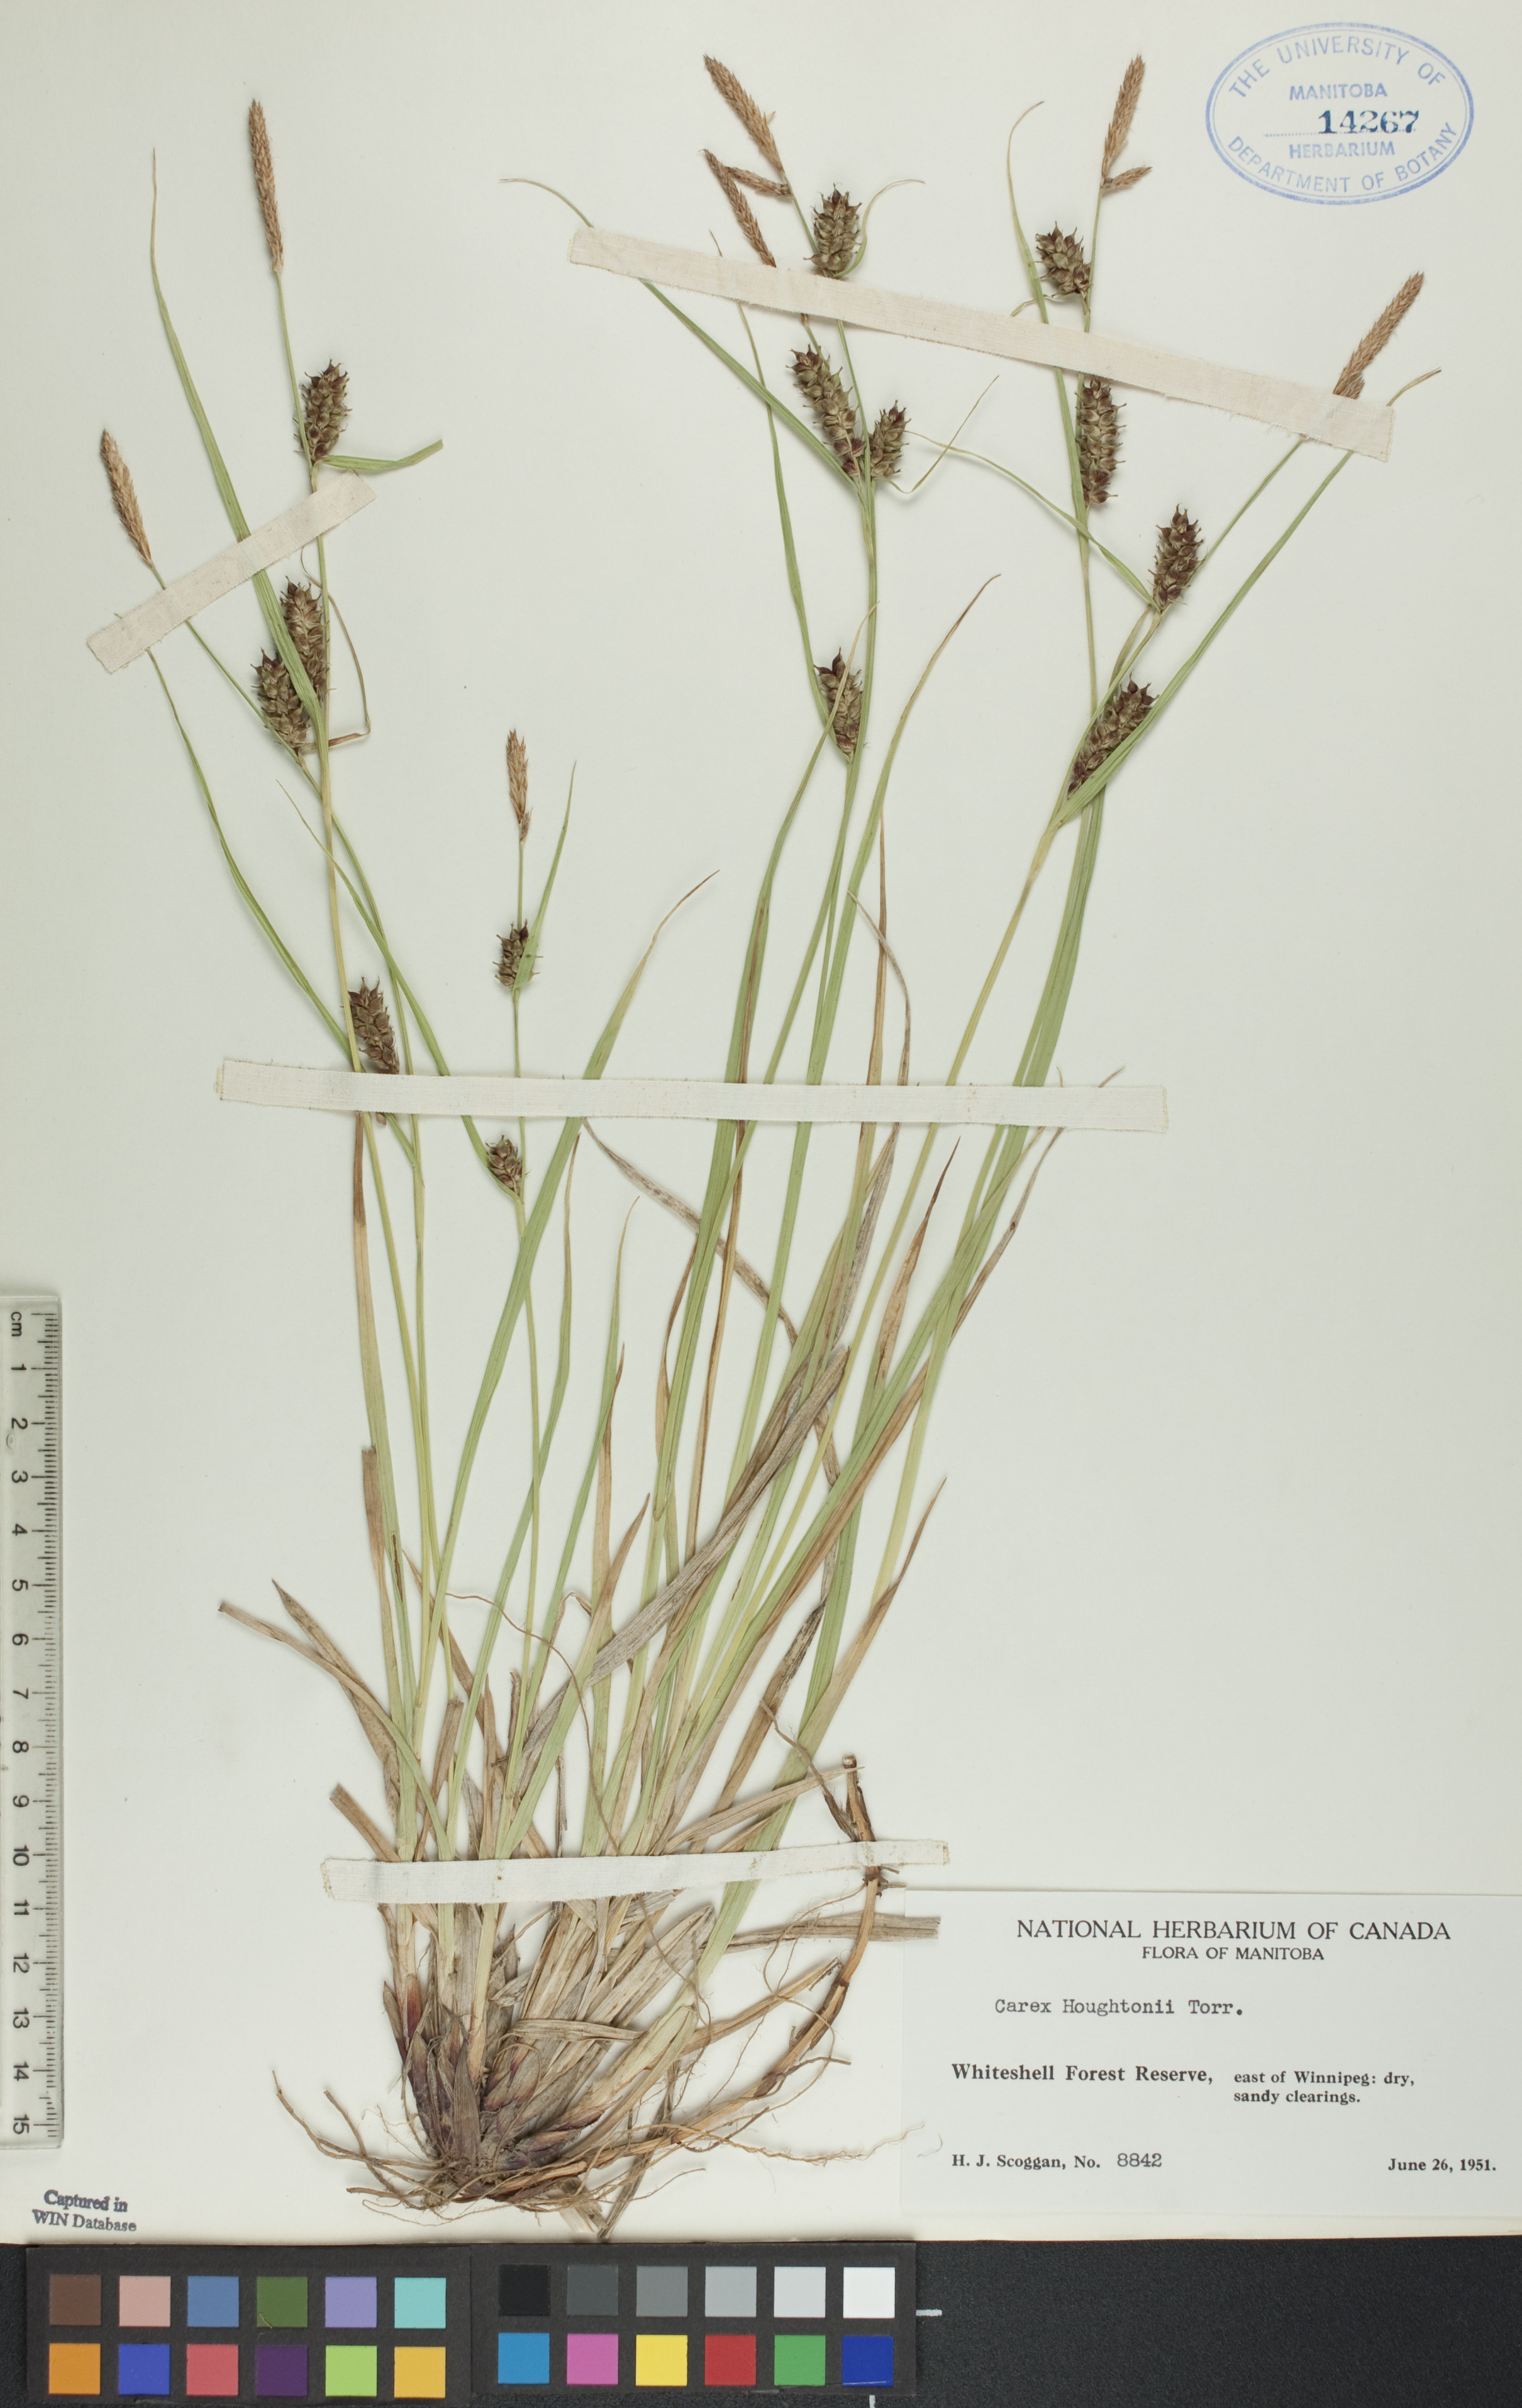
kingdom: Plantae
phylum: Tracheophyta
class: Liliopsida
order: Poales
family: Cyperaceae
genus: Carex
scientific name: Carex houghtoniana
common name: Houghton's sedge
